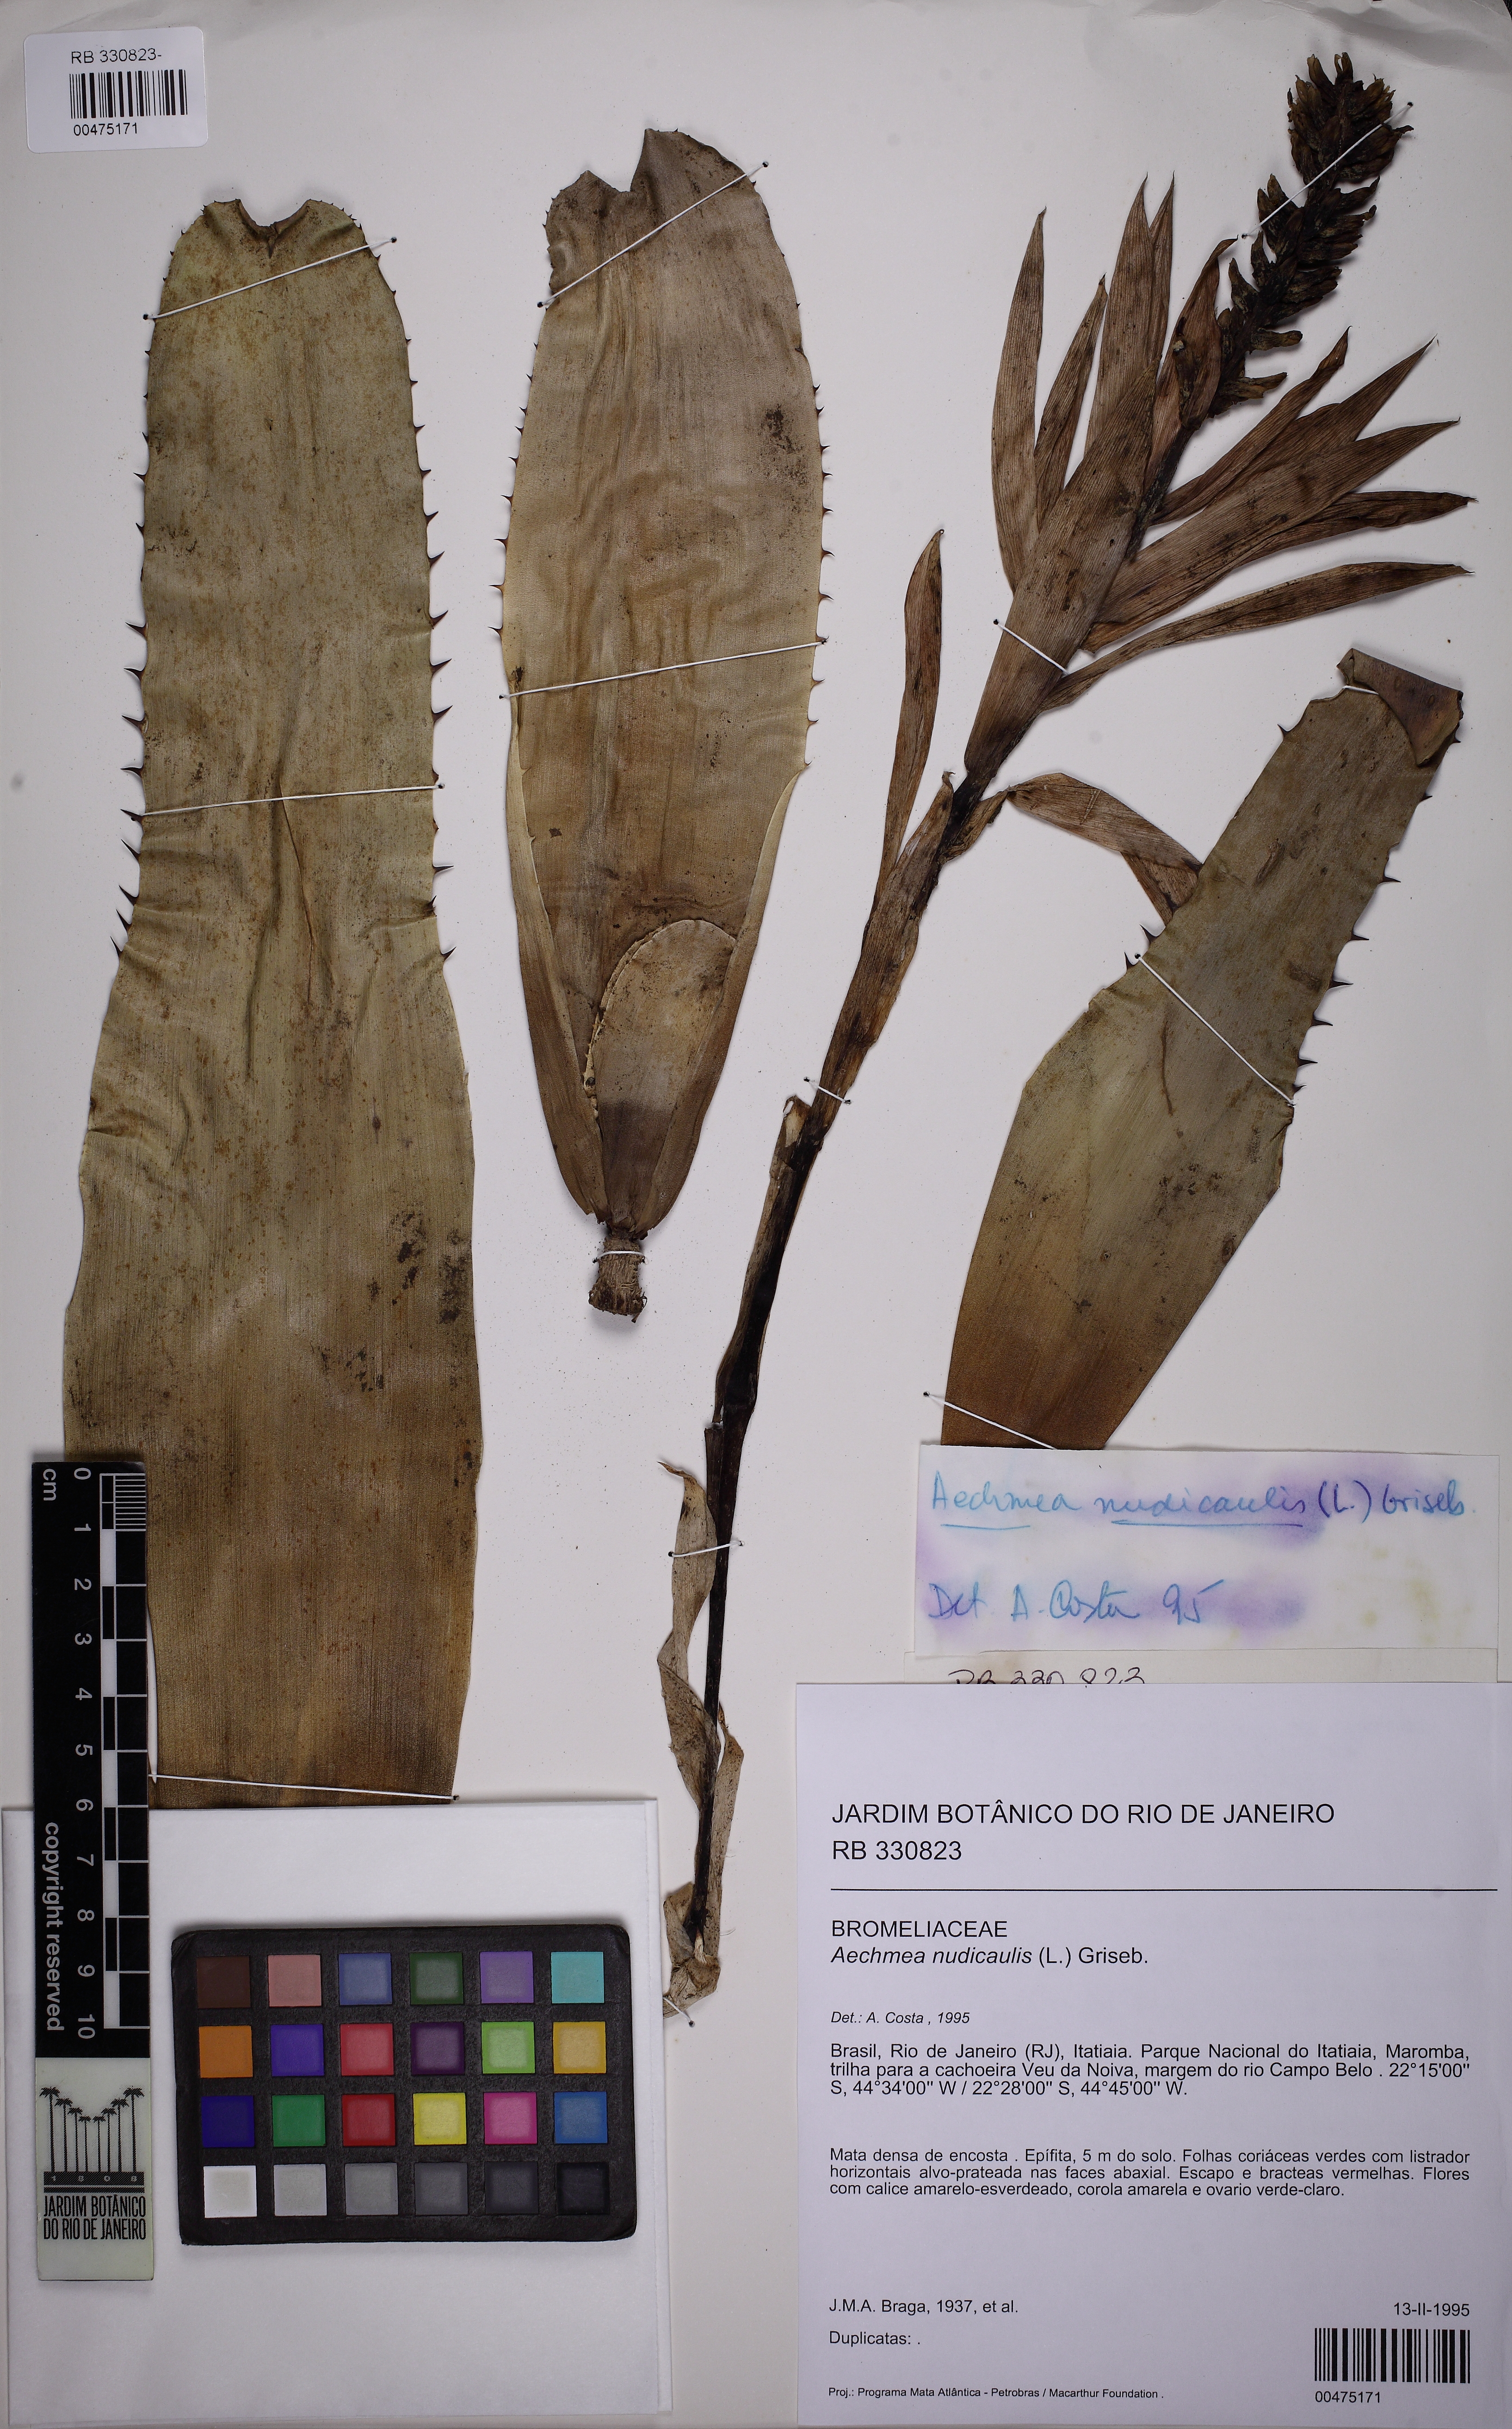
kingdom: Plantae
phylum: Tracheophyta
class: Liliopsida
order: Poales
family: Bromeliaceae
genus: Aechmea
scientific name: Aechmea nudicaulis
